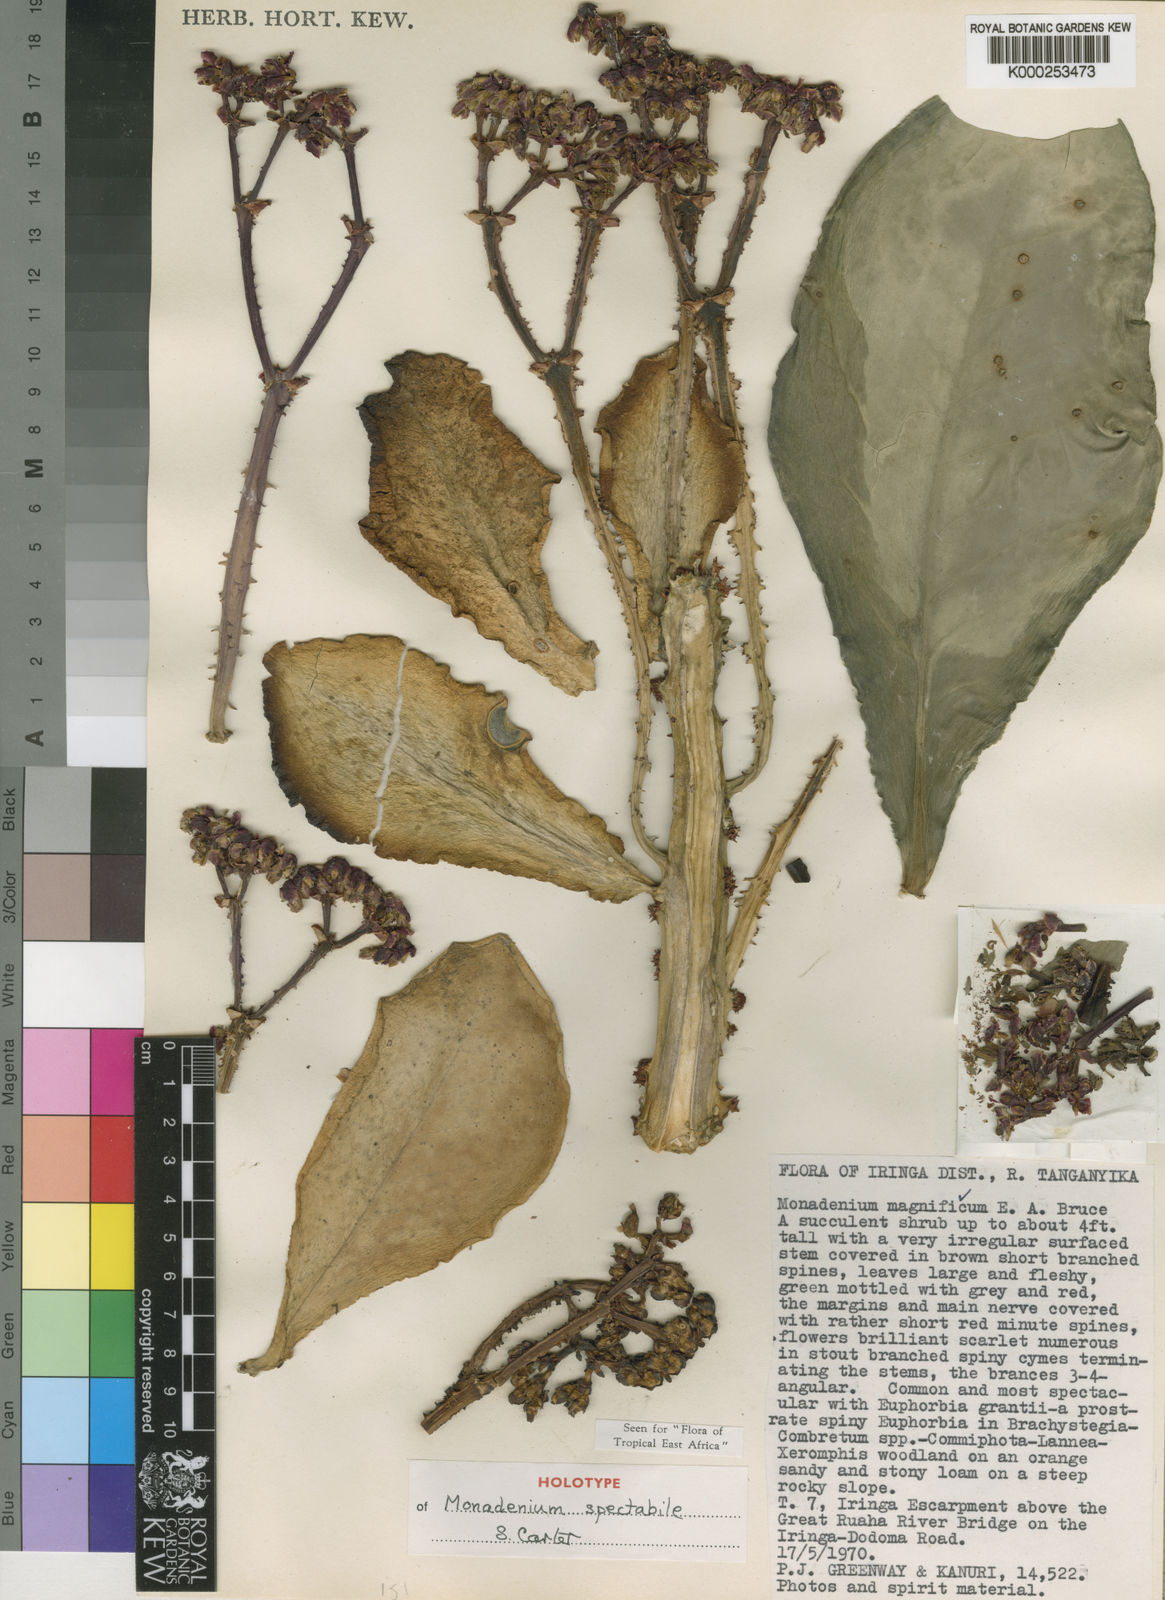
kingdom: Plantae
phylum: Tracheophyta
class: Magnoliopsida
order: Malpighiales
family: Euphorbiaceae
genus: Euphorbia
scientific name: Euphorbia spectabilis
